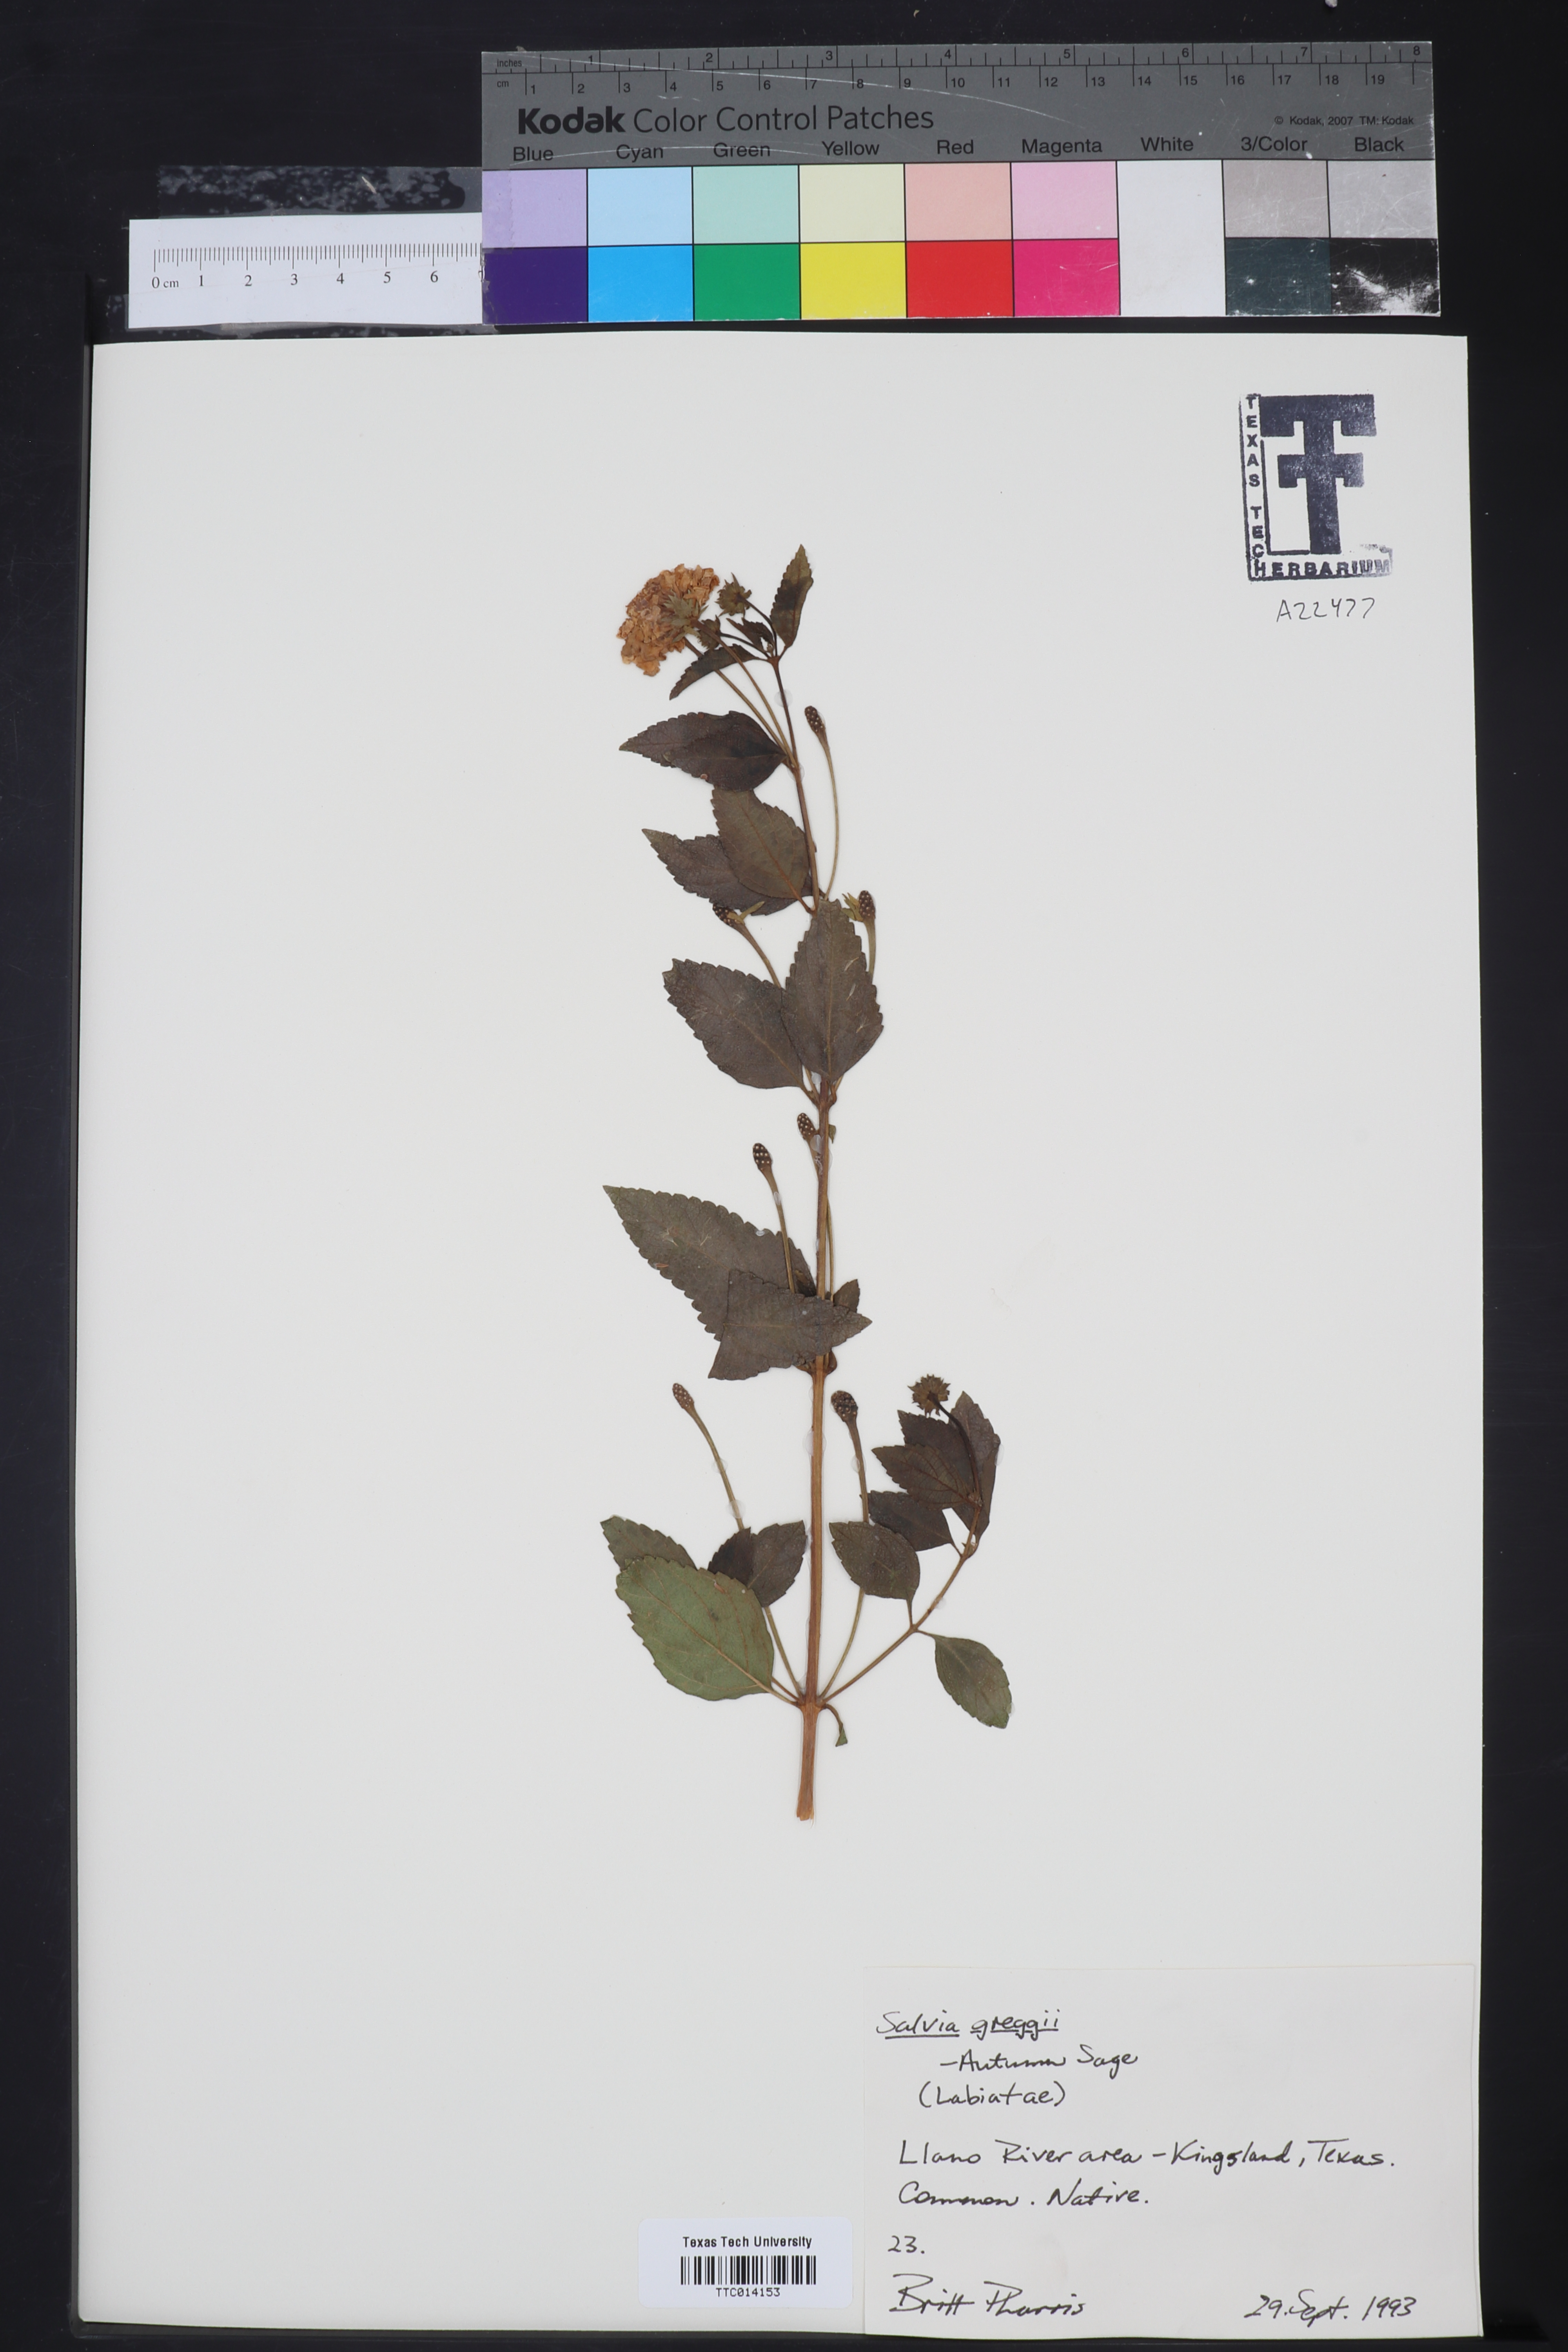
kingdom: Plantae
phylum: Tracheophyta
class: Magnoliopsida
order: Lamiales
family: Lamiaceae
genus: Salvia
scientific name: Salvia greggii
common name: Autumn sage
